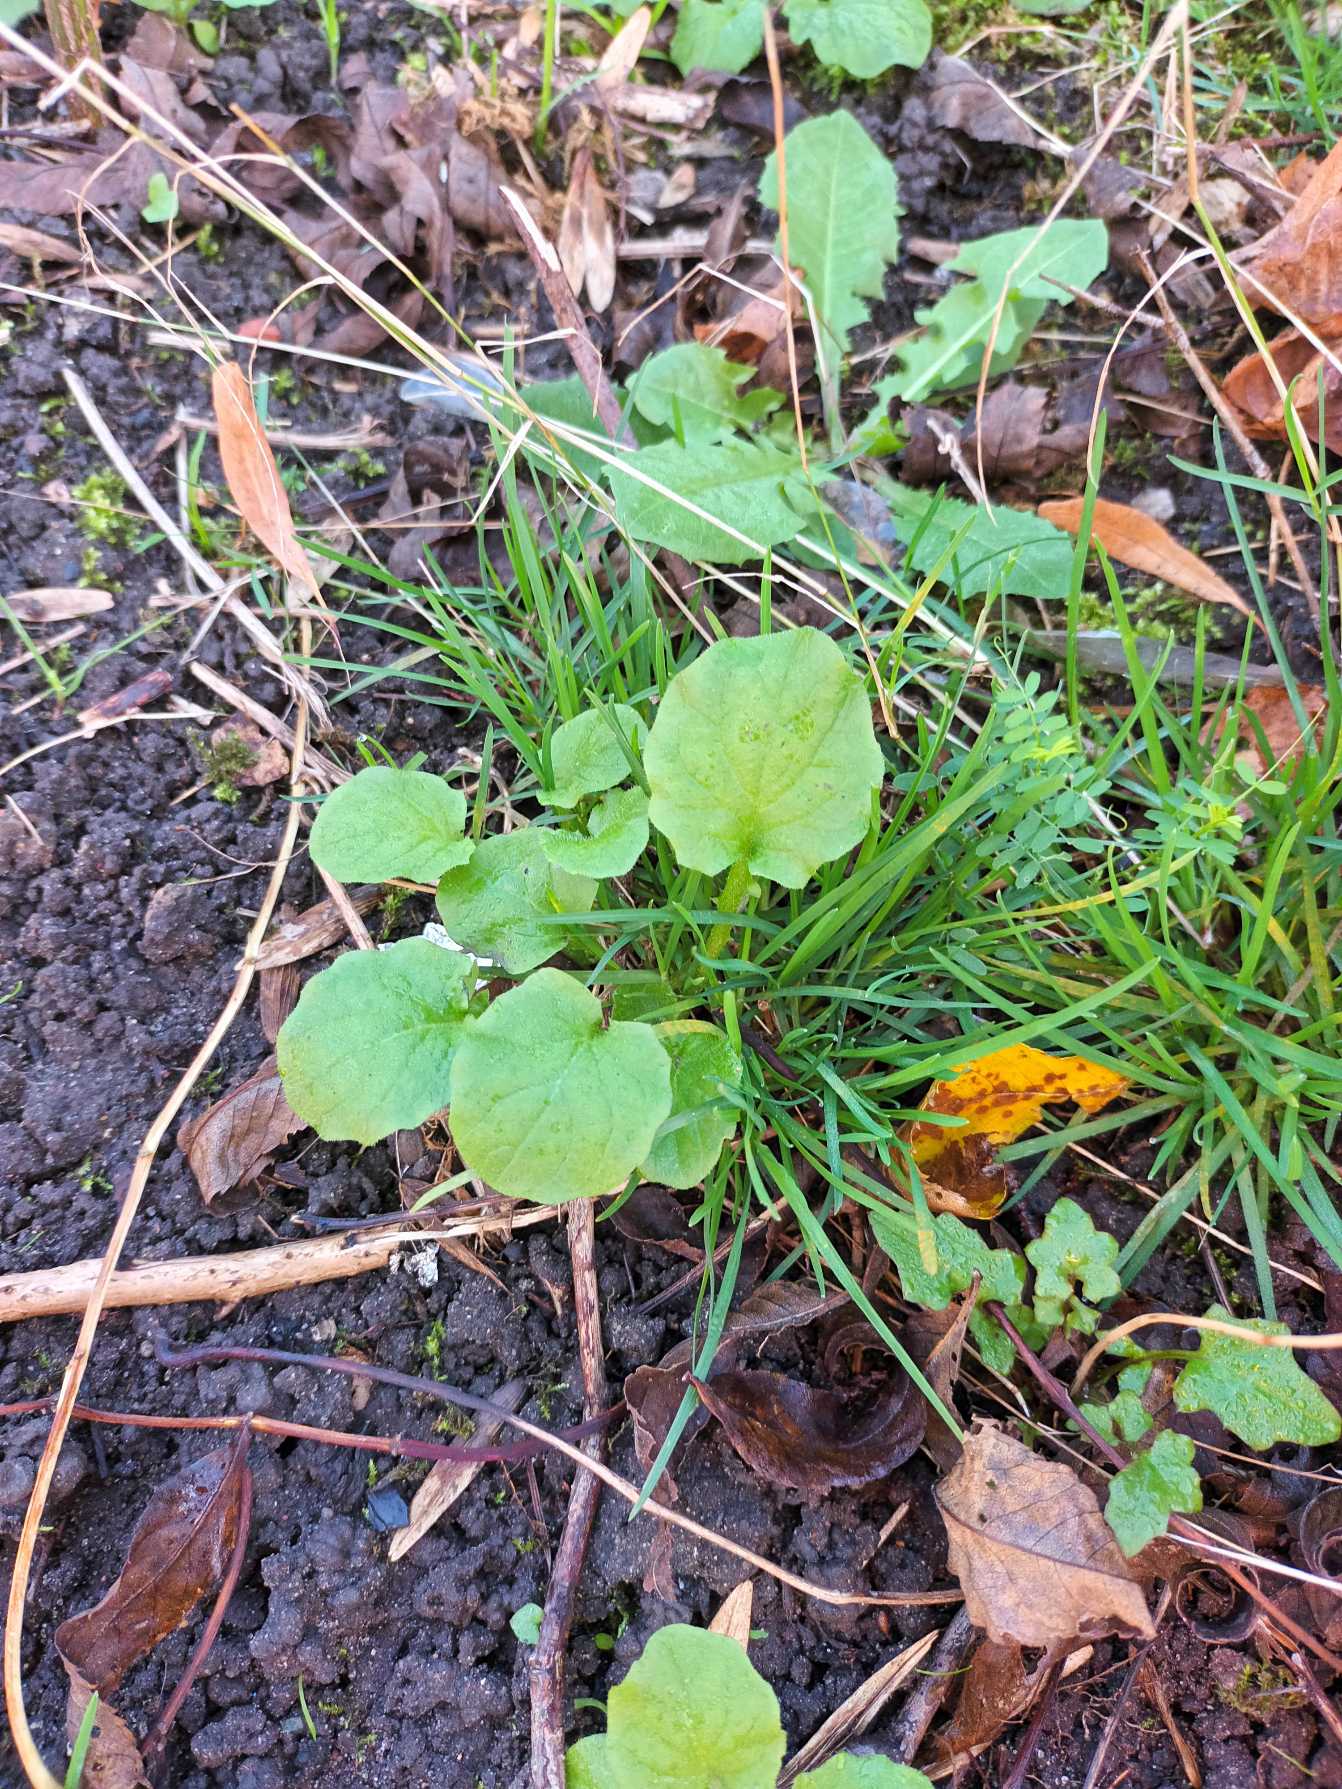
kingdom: Plantae
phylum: Tracheophyta
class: Magnoliopsida
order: Asterales
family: Asteraceae
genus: Lapsana
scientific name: Lapsana communis
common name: Haremad
